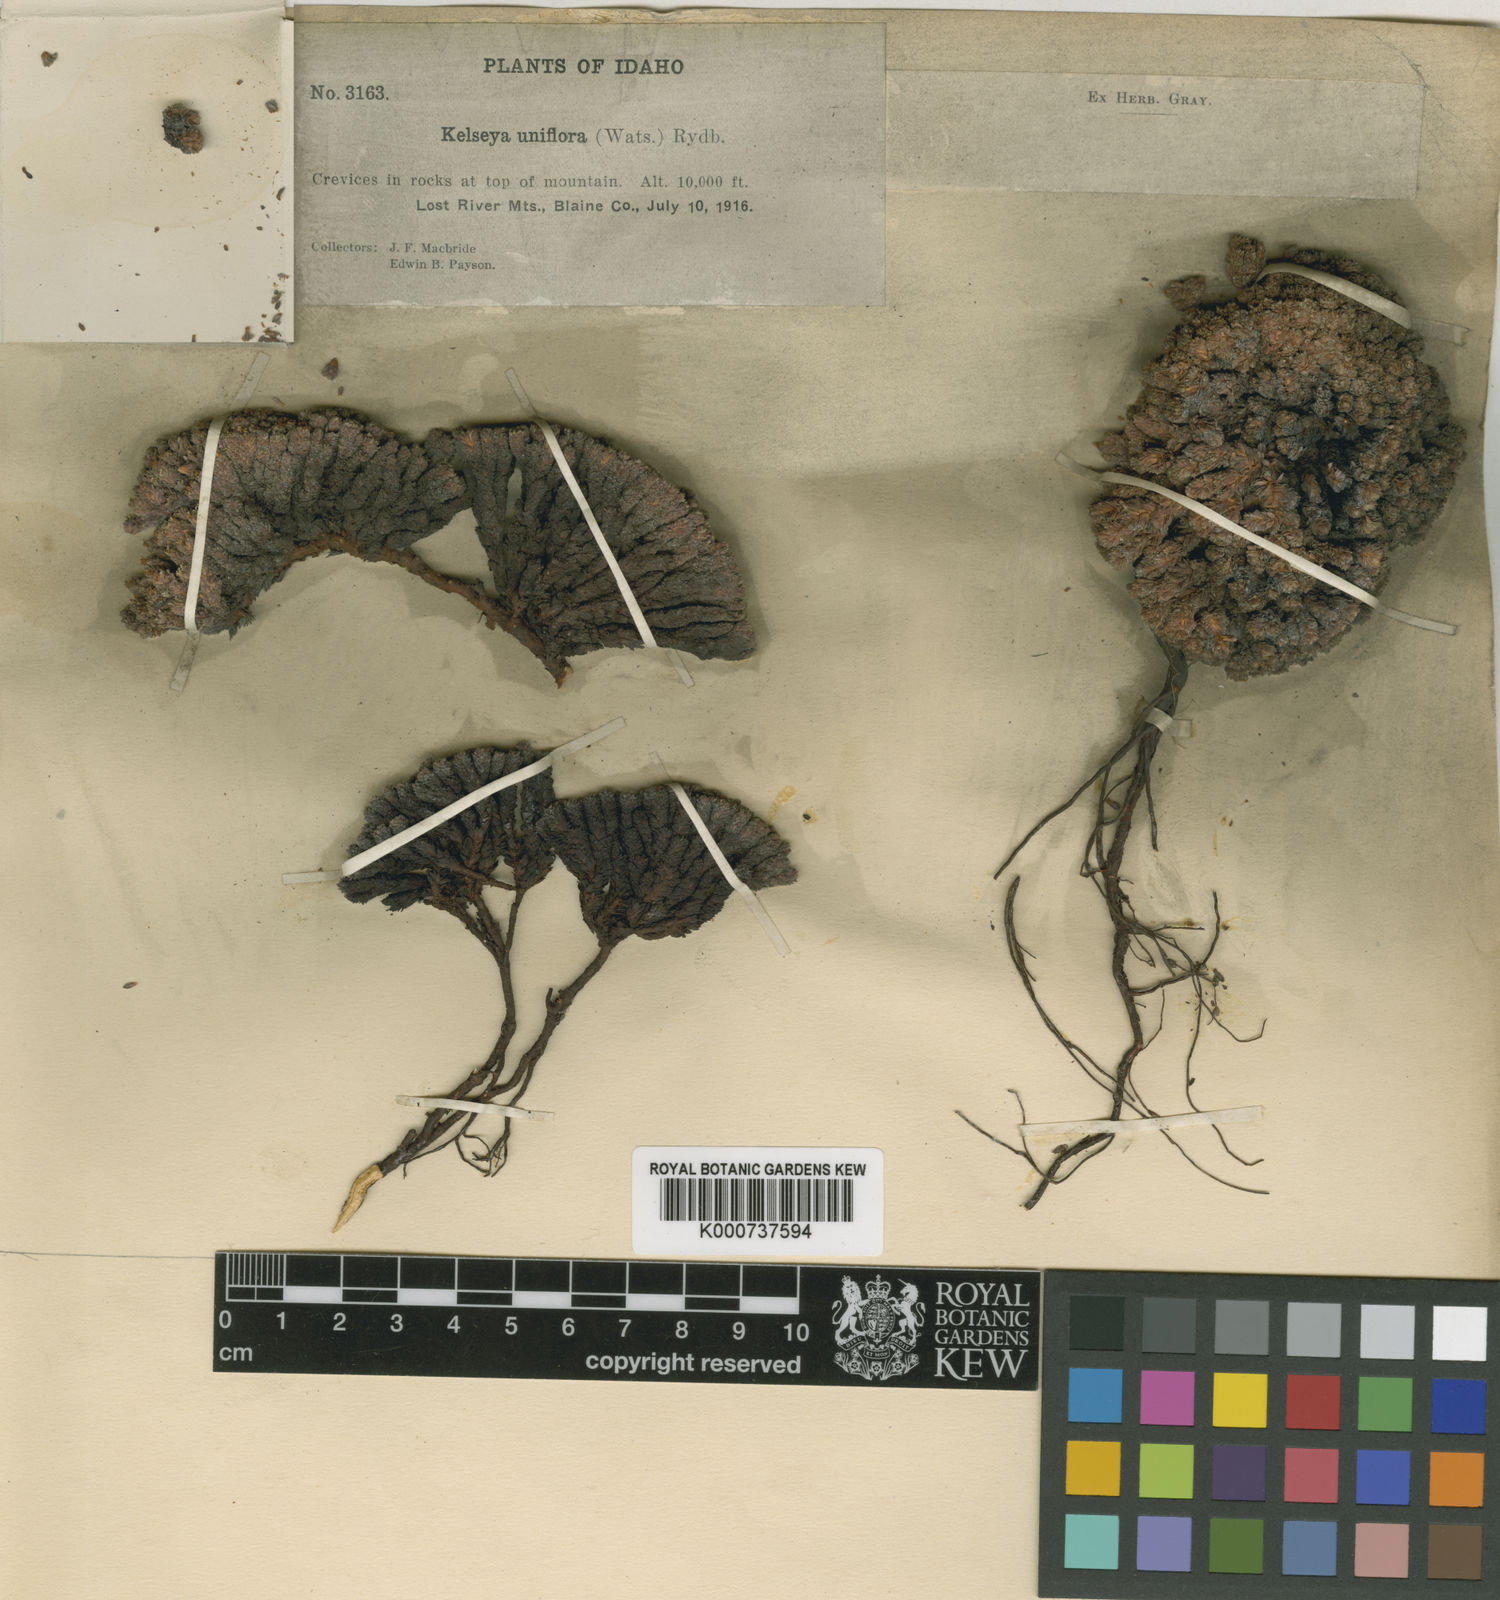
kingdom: Plantae
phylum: Tracheophyta
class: Magnoliopsida
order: Rosales
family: Rosaceae
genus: Kelseya
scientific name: Kelseya uniflora
